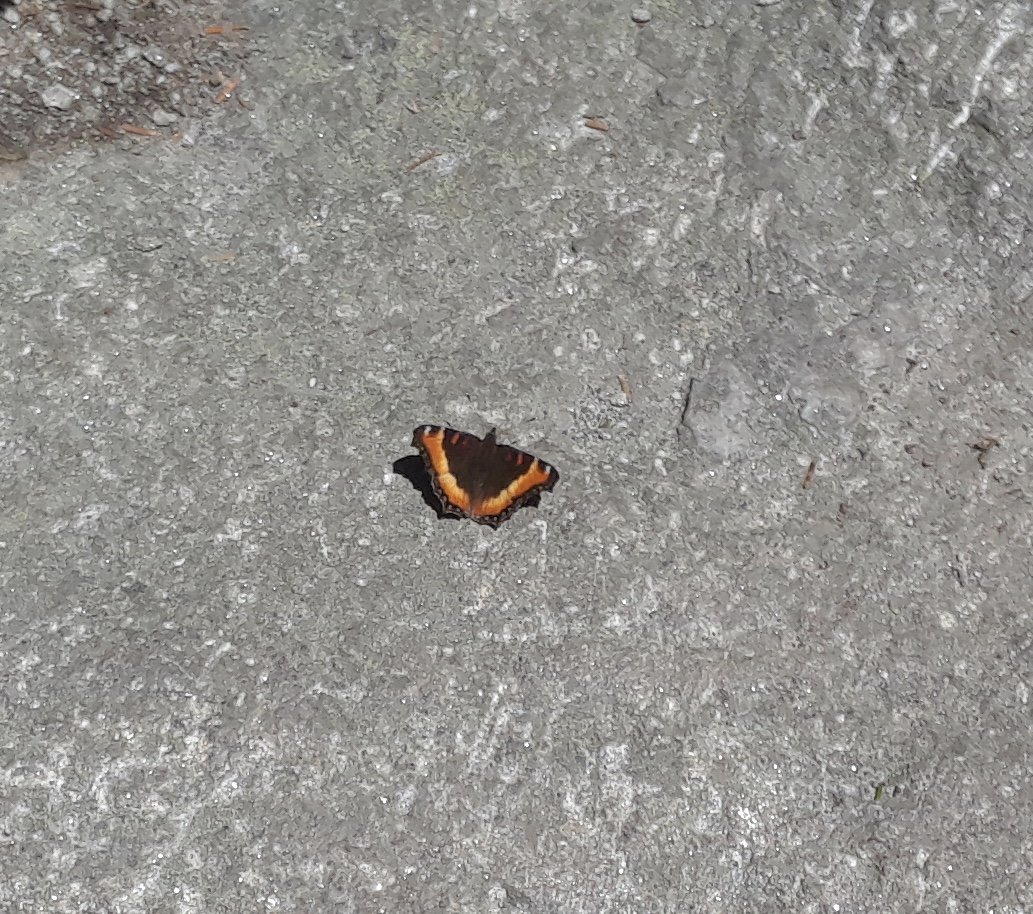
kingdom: Animalia
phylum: Arthropoda
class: Insecta
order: Lepidoptera
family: Nymphalidae
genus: Aglais
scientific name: Aglais milberti
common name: Milbert's Tortoiseshell
